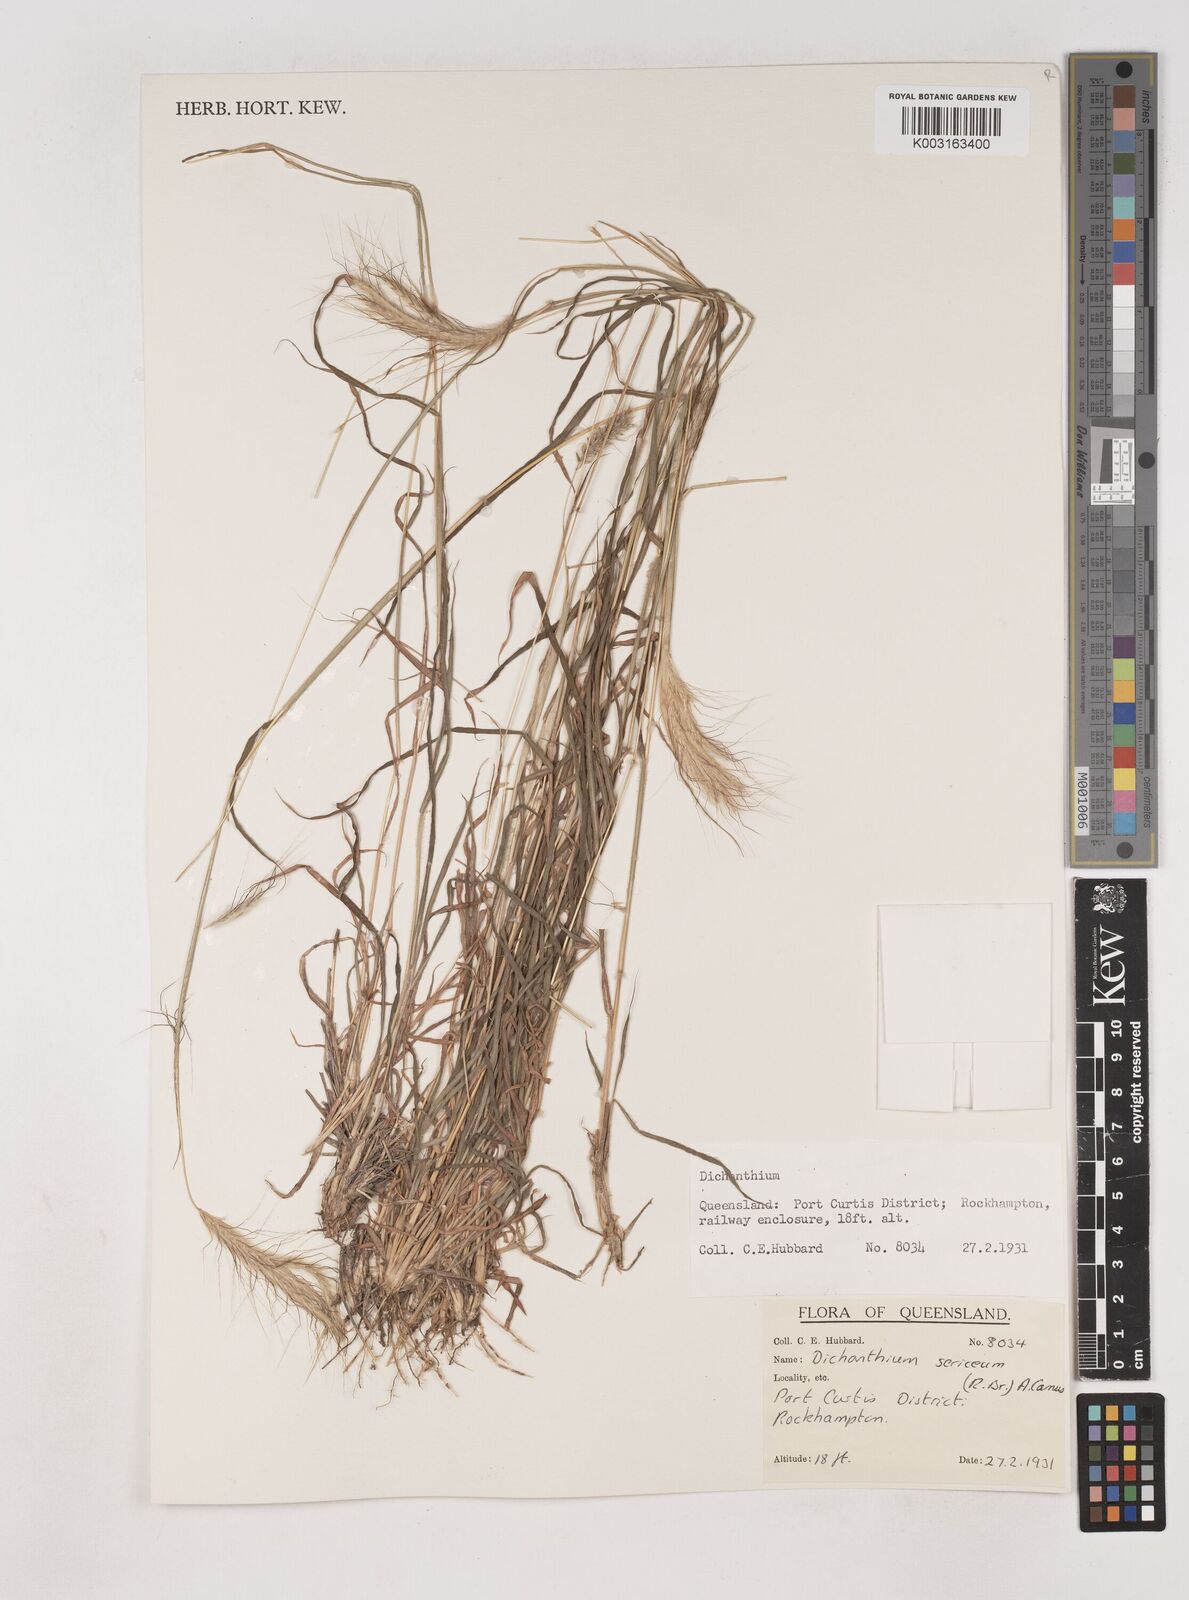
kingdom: Plantae
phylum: Tracheophyta
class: Liliopsida
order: Poales
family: Poaceae
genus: Dichanthium
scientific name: Dichanthium sericeum
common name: Silky bluestem
